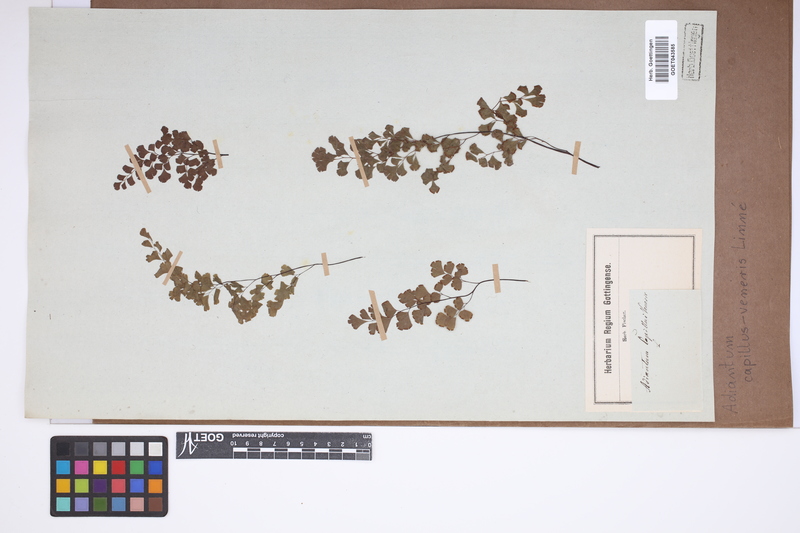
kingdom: Plantae
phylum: Tracheophyta
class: Polypodiopsida
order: Polypodiales
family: Pteridaceae
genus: Adiantum
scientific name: Adiantum capillus-veneris
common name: Maidenhair fern
